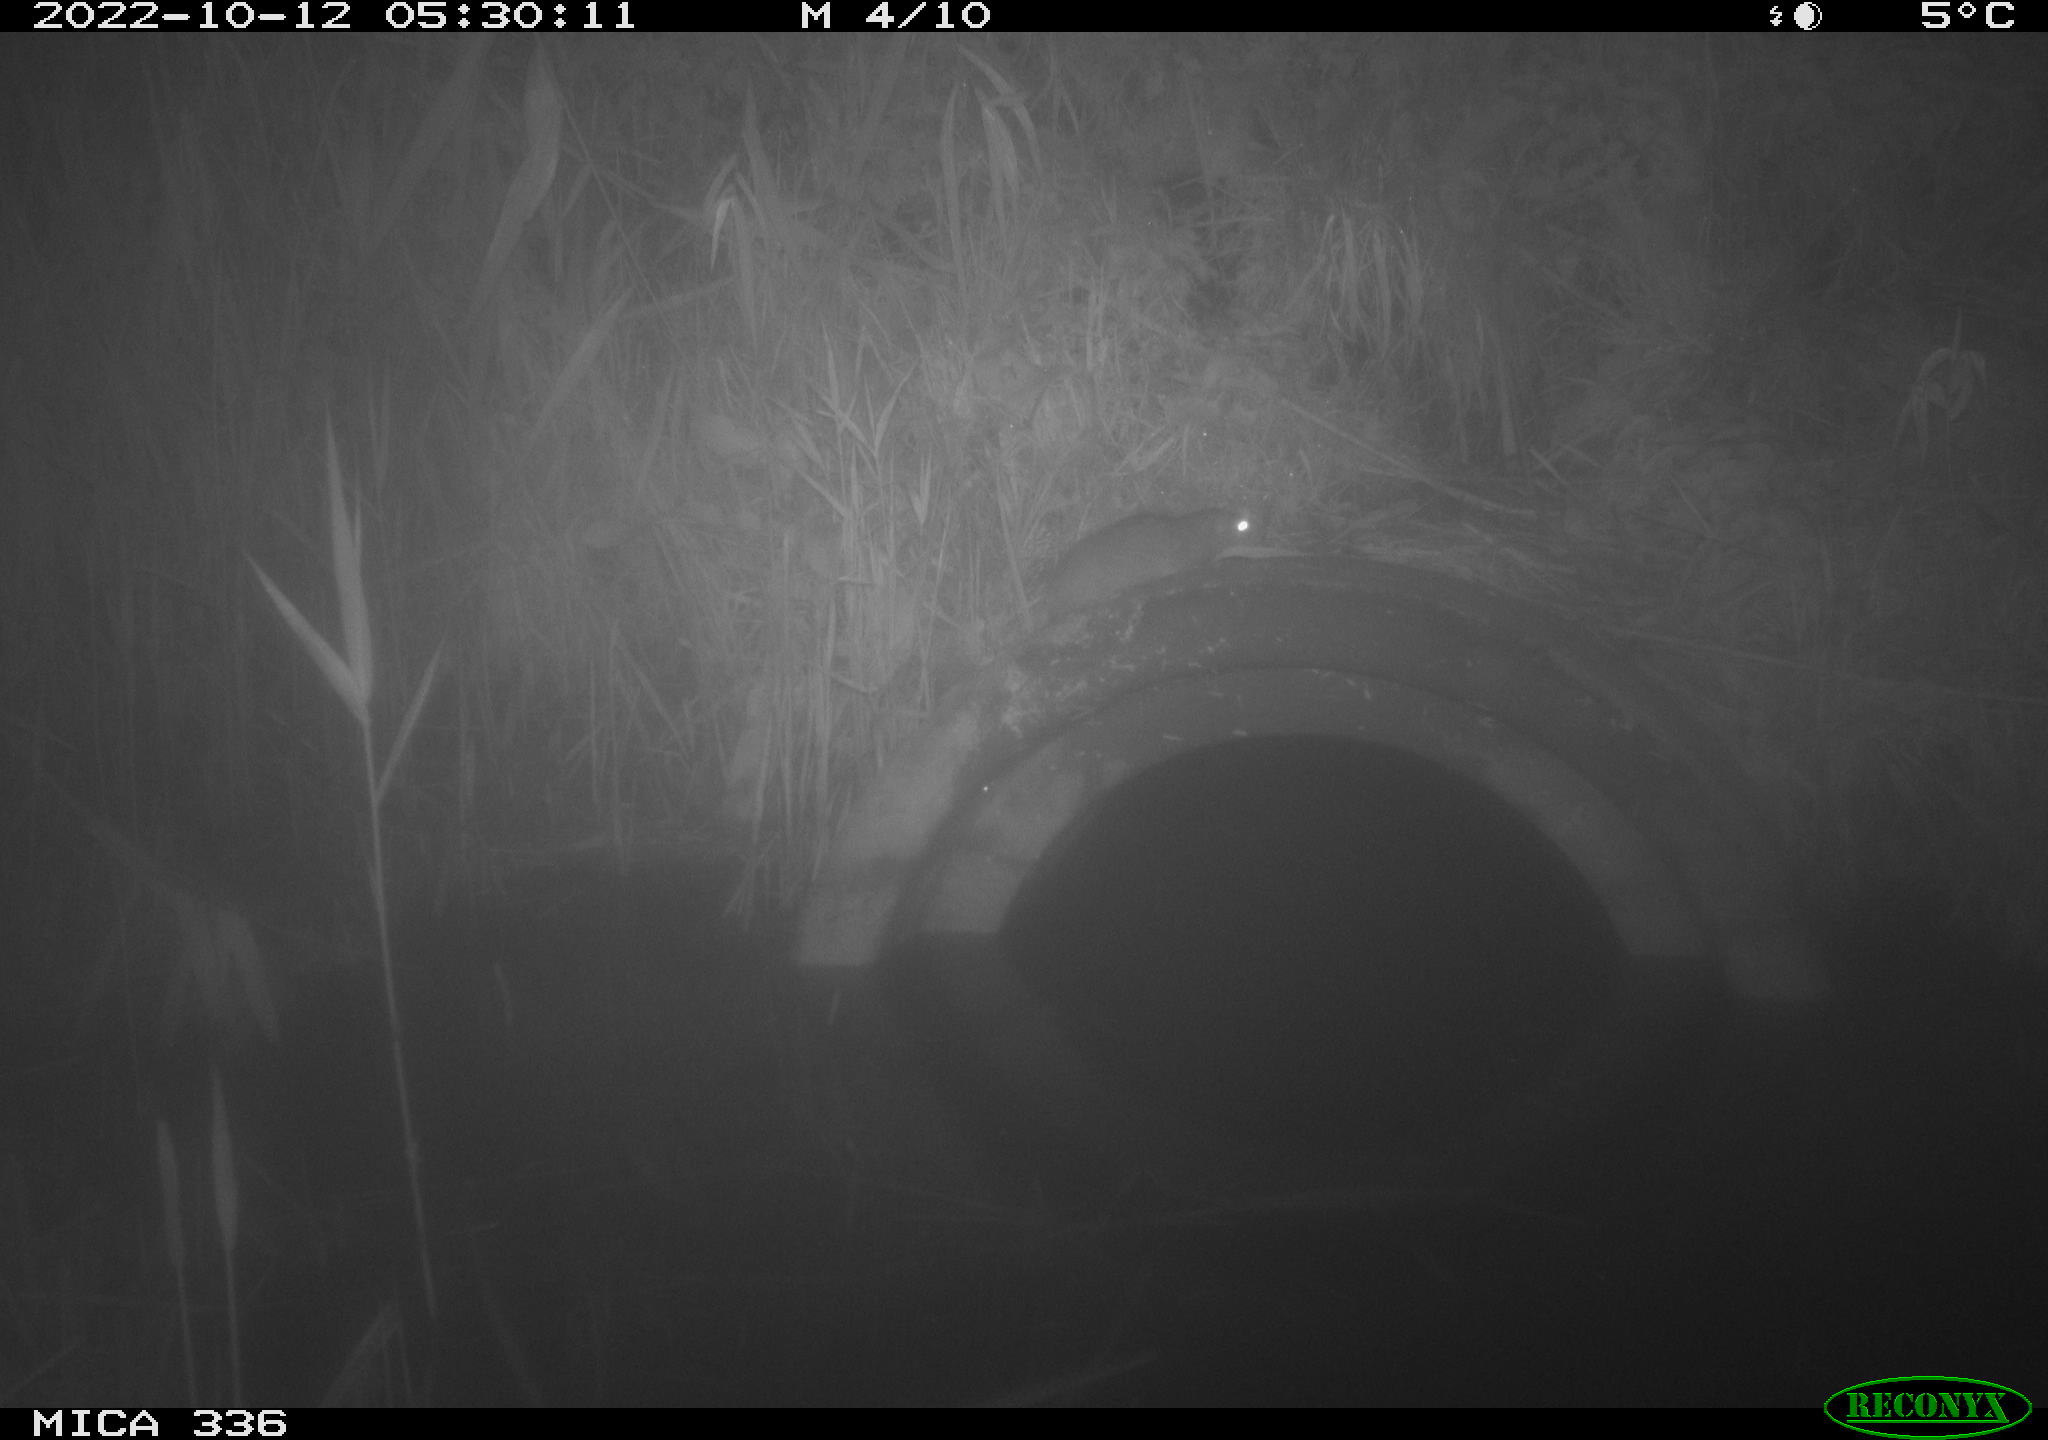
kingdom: Animalia
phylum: Chordata
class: Mammalia
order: Rodentia
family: Muridae
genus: Rattus
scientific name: Rattus norvegicus
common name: Brown rat
